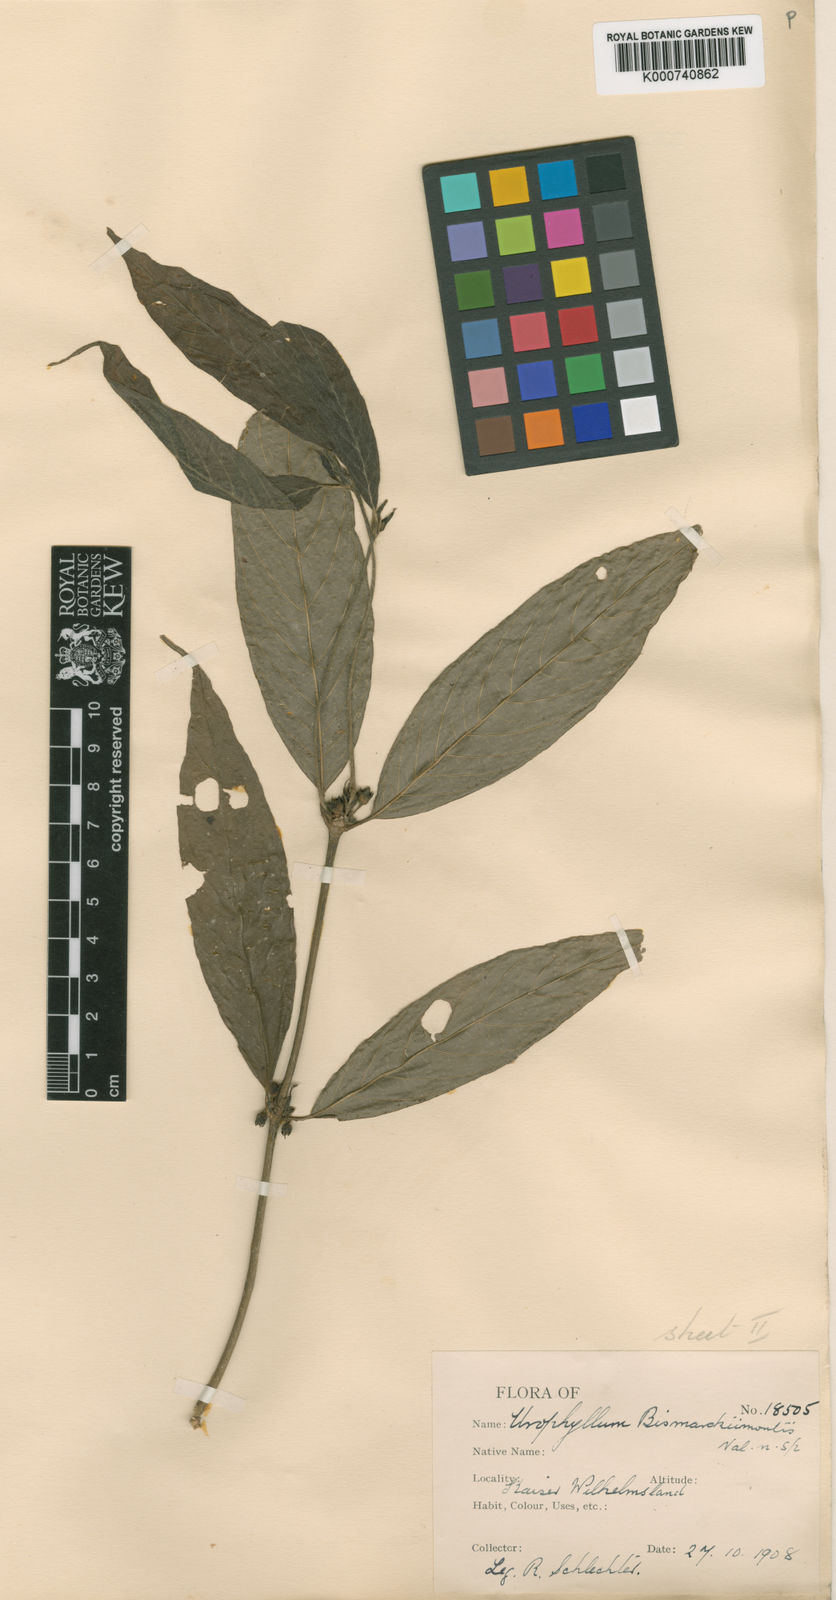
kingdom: Plantae
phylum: Tracheophyta
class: Magnoliopsida
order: Gentianales
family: Rubiaceae
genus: Urophyllum
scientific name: Urophyllum
